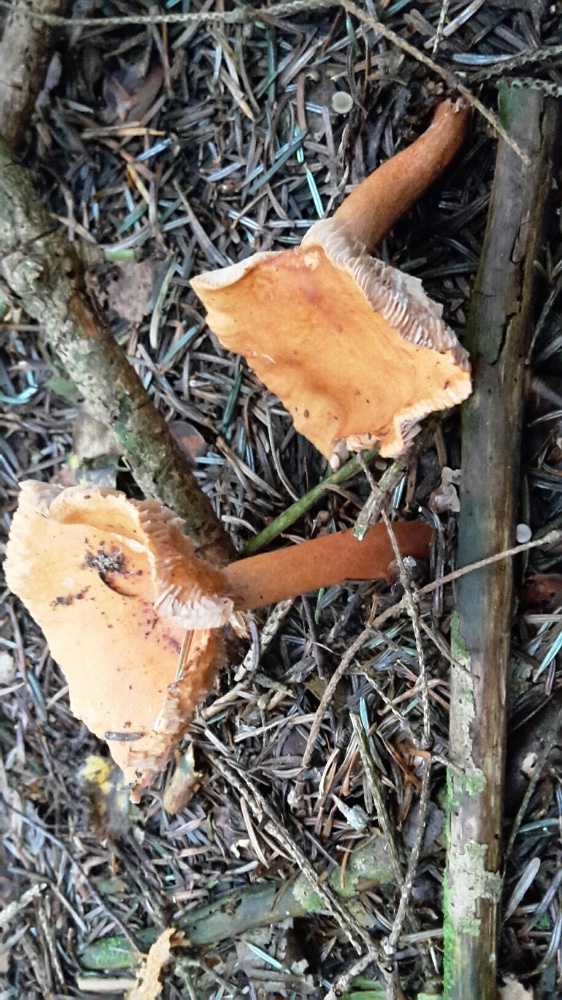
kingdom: Fungi
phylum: Basidiomycota
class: Agaricomycetes
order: Russulales
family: Russulaceae
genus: Lactarius
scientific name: Lactarius aurantiacus
